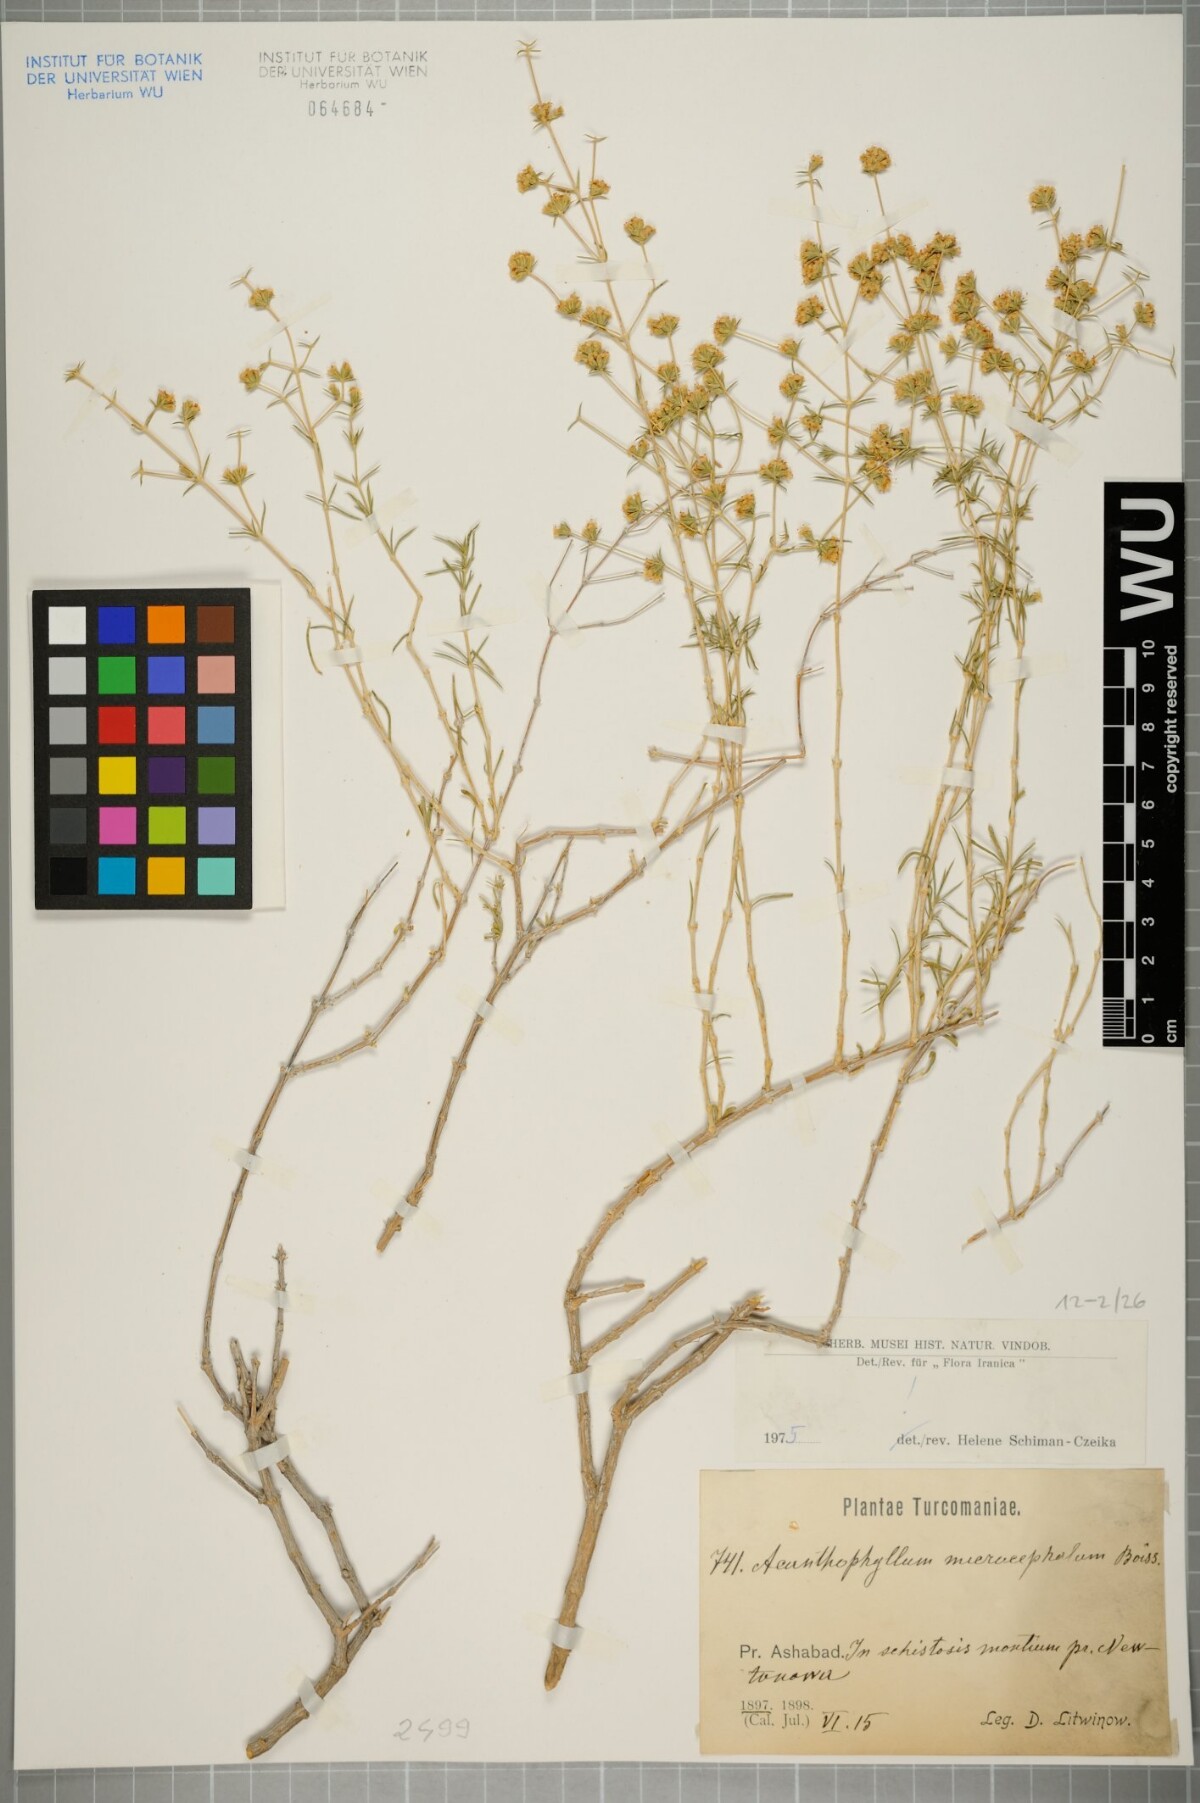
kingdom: Plantae
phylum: Tracheophyta
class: Magnoliopsida
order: Caryophyllales
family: Caryophyllaceae
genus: Acanthophyllum
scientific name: Acanthophyllum microcephalum
